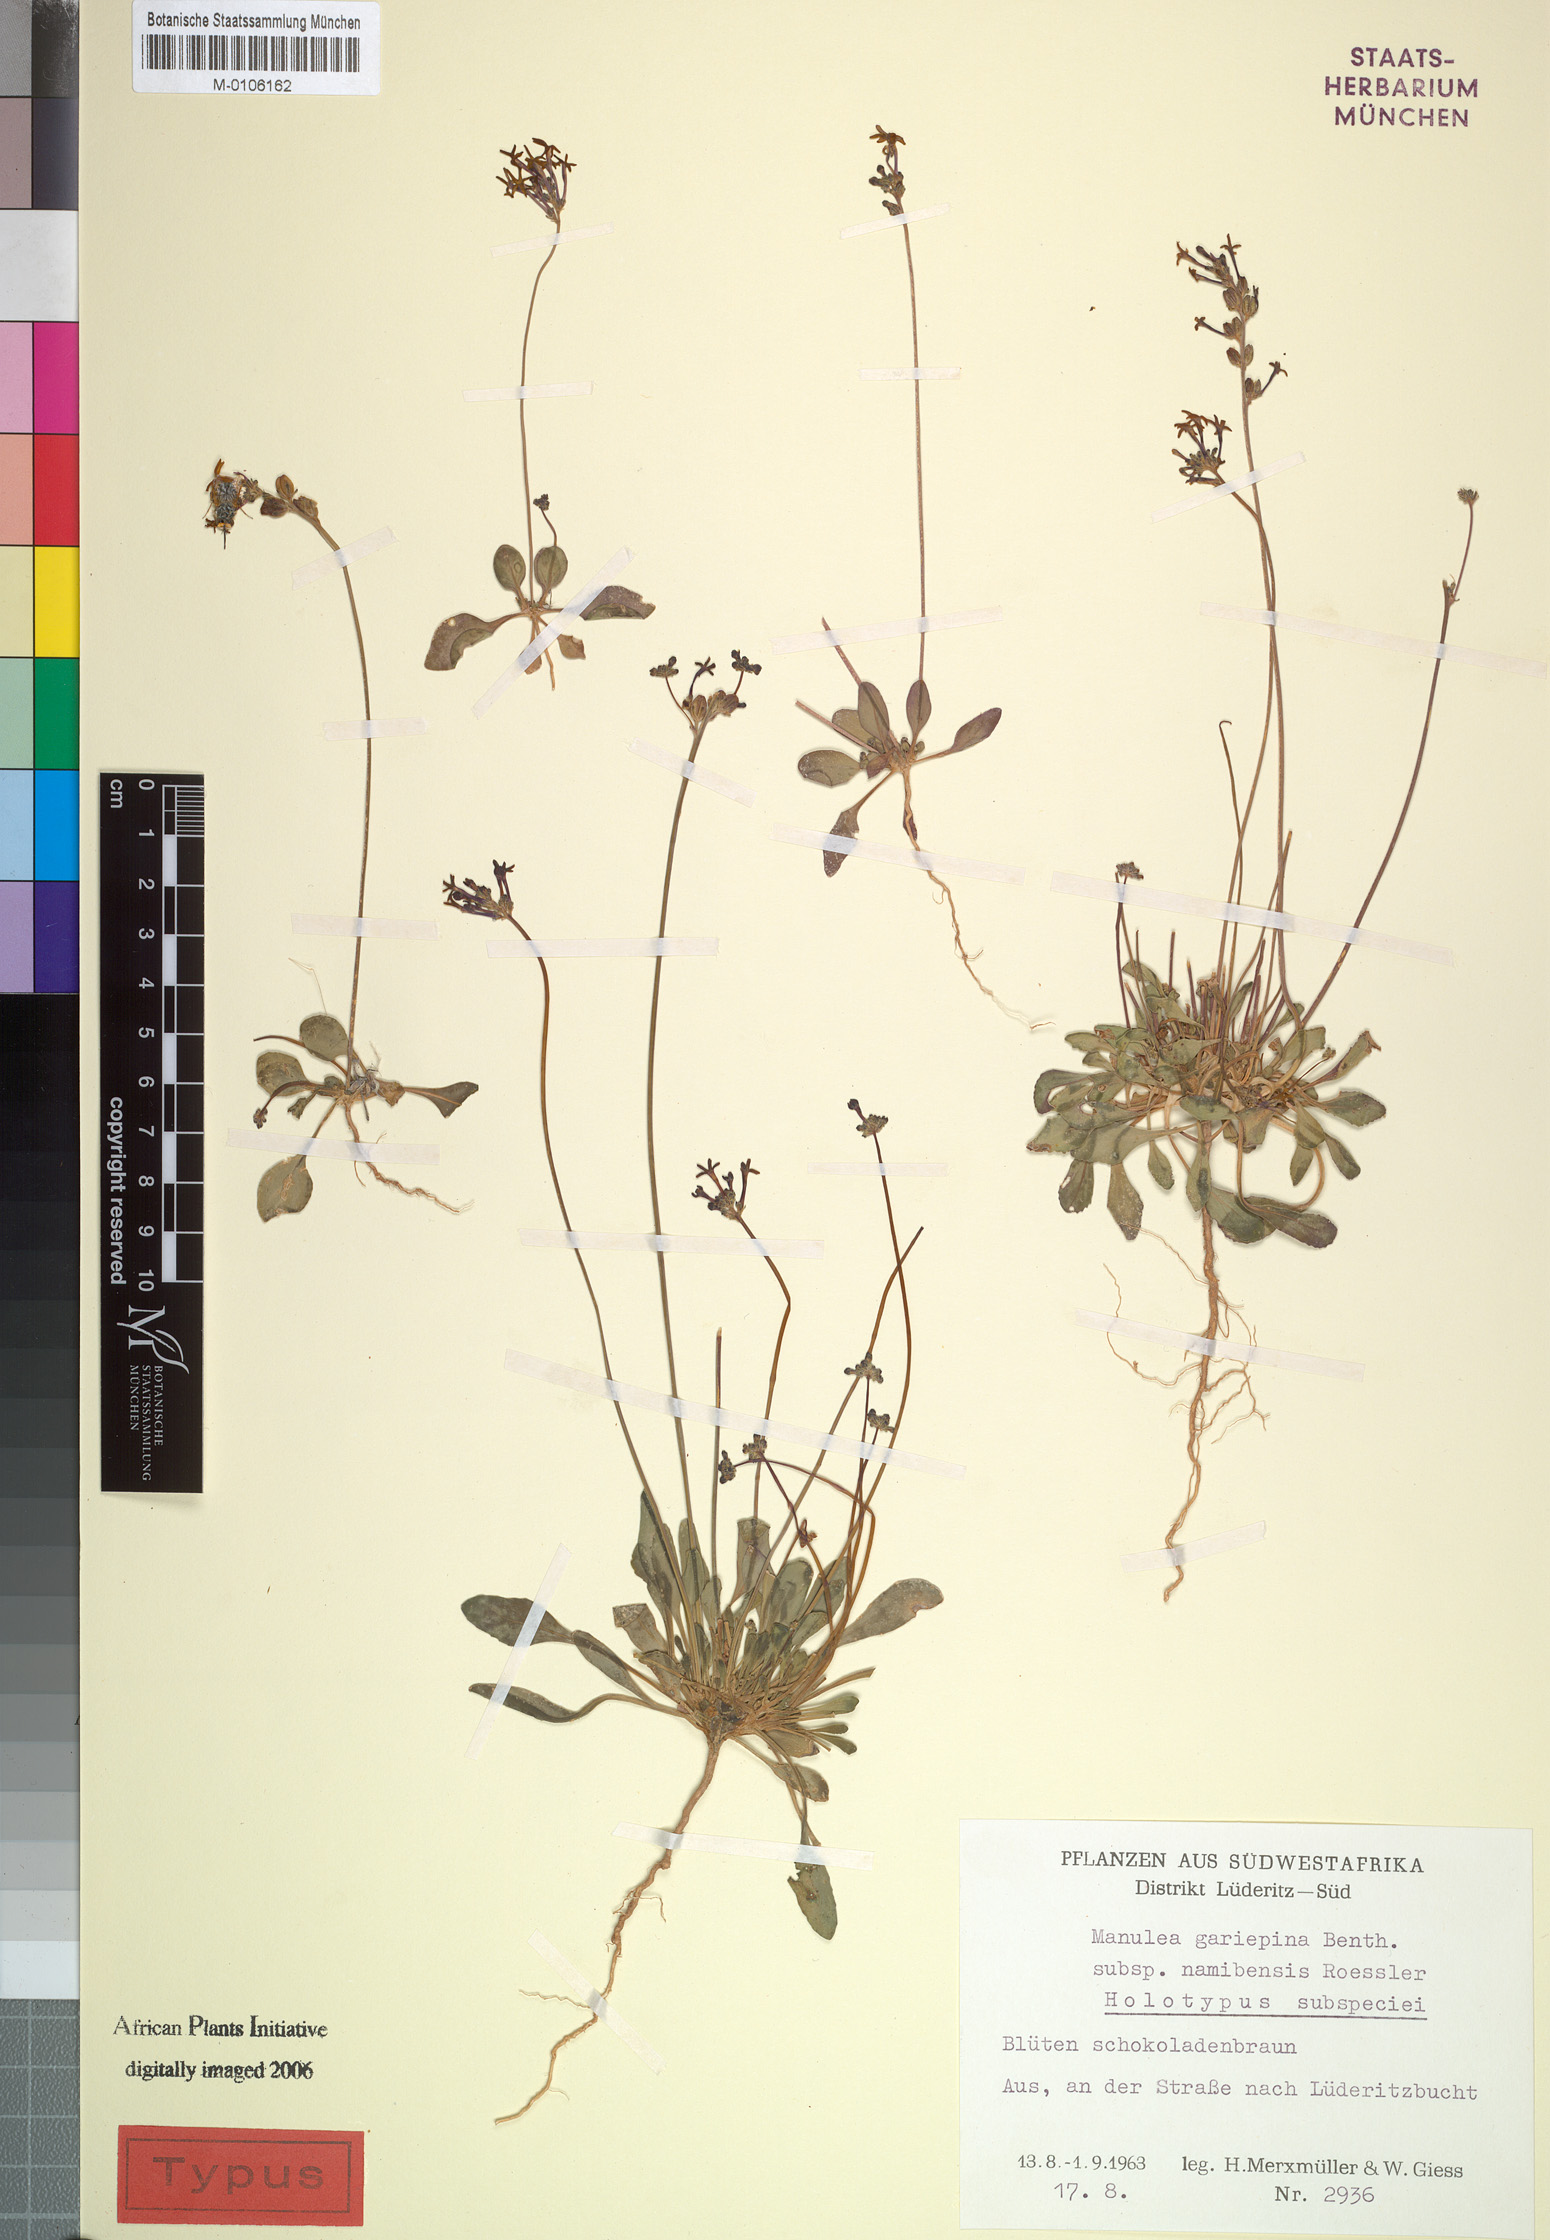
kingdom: Plantae
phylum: Tracheophyta
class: Magnoliopsida
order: Lamiales
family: Scrophulariaceae
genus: Manulea
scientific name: Manulea namibensis
